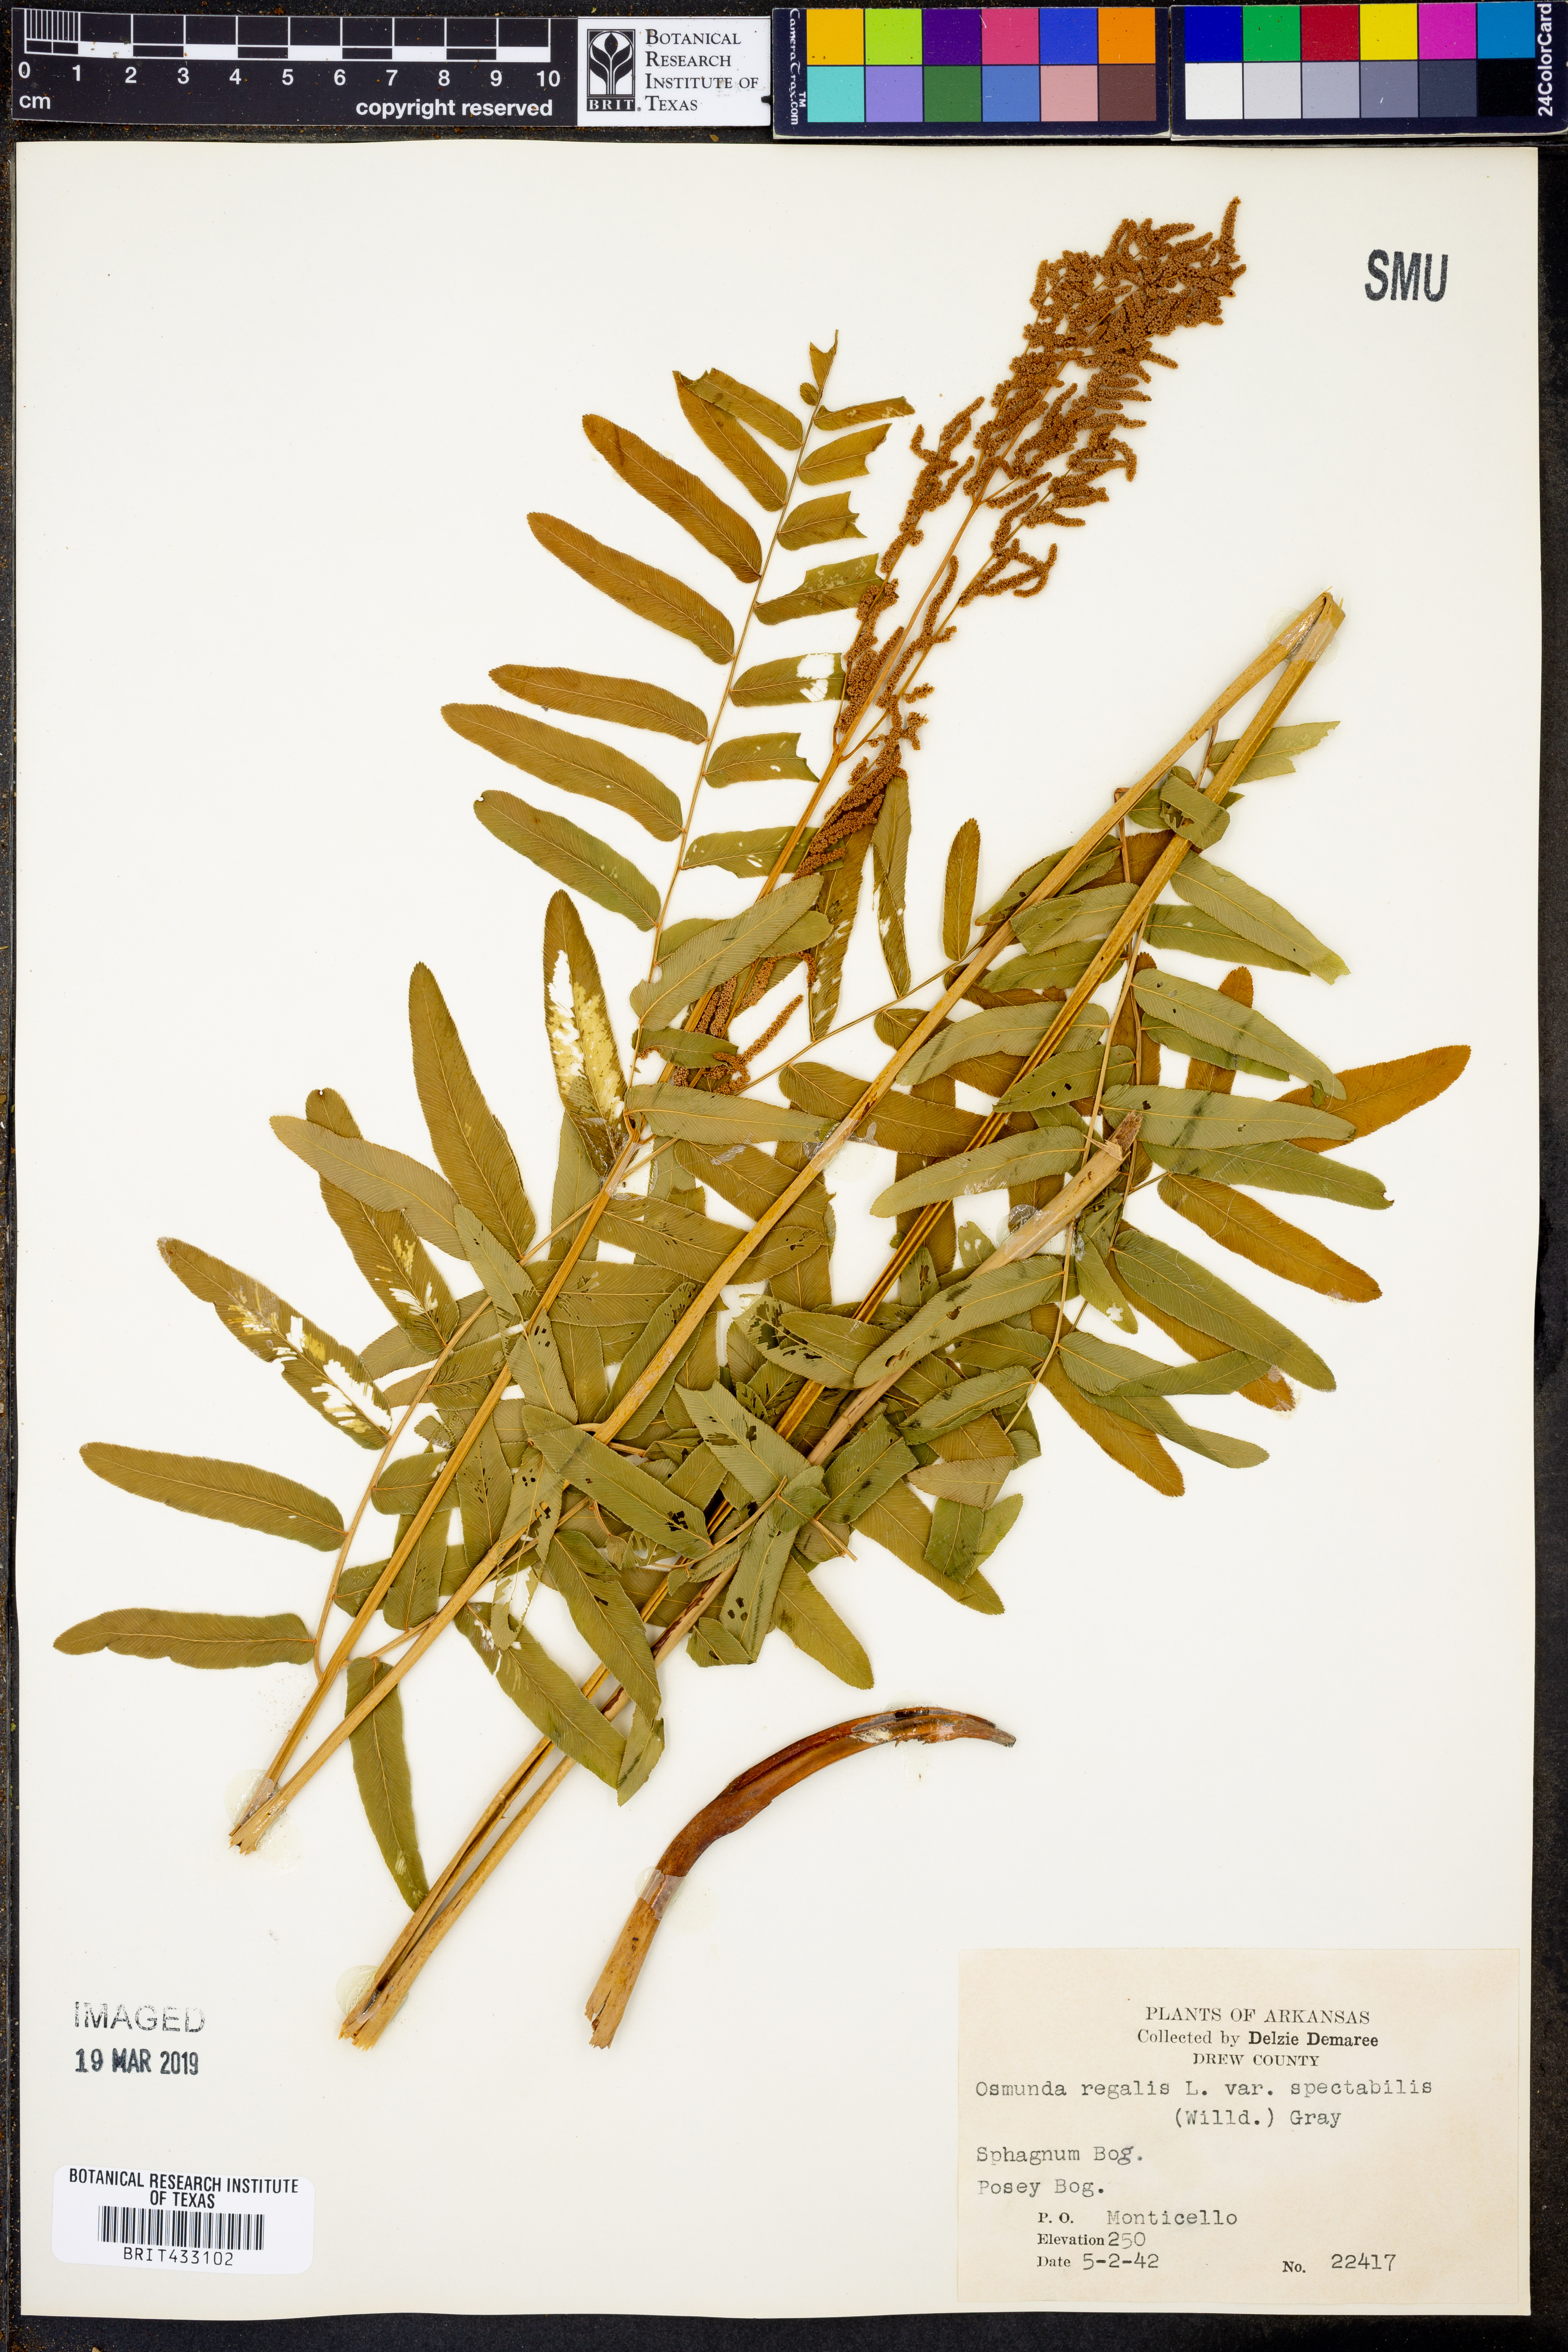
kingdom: Plantae
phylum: Tracheophyta
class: Polypodiopsida
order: Osmundales
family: Osmundaceae
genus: Osmunda
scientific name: Osmunda spectabilis
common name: American royal fern
